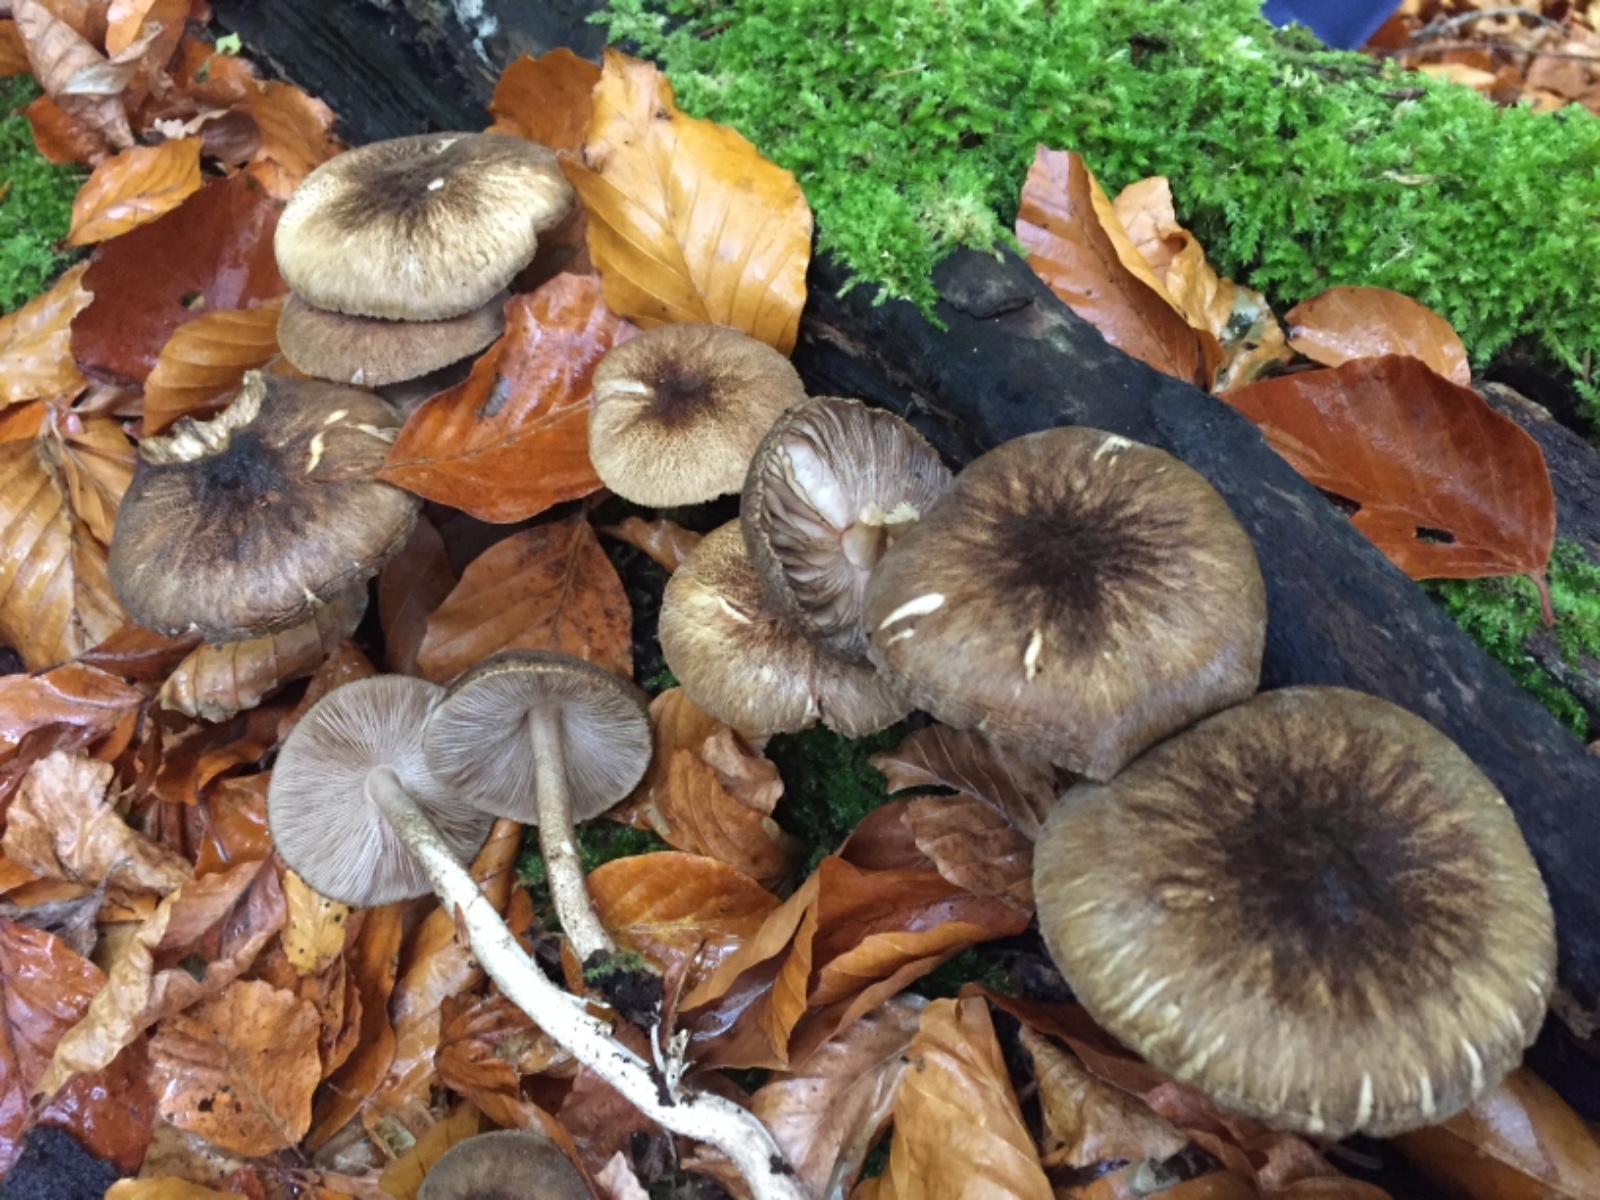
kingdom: Fungi
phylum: Basidiomycota
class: Agaricomycetes
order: Agaricales
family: Pluteaceae
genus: Pluteus
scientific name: Pluteus umbrosus
